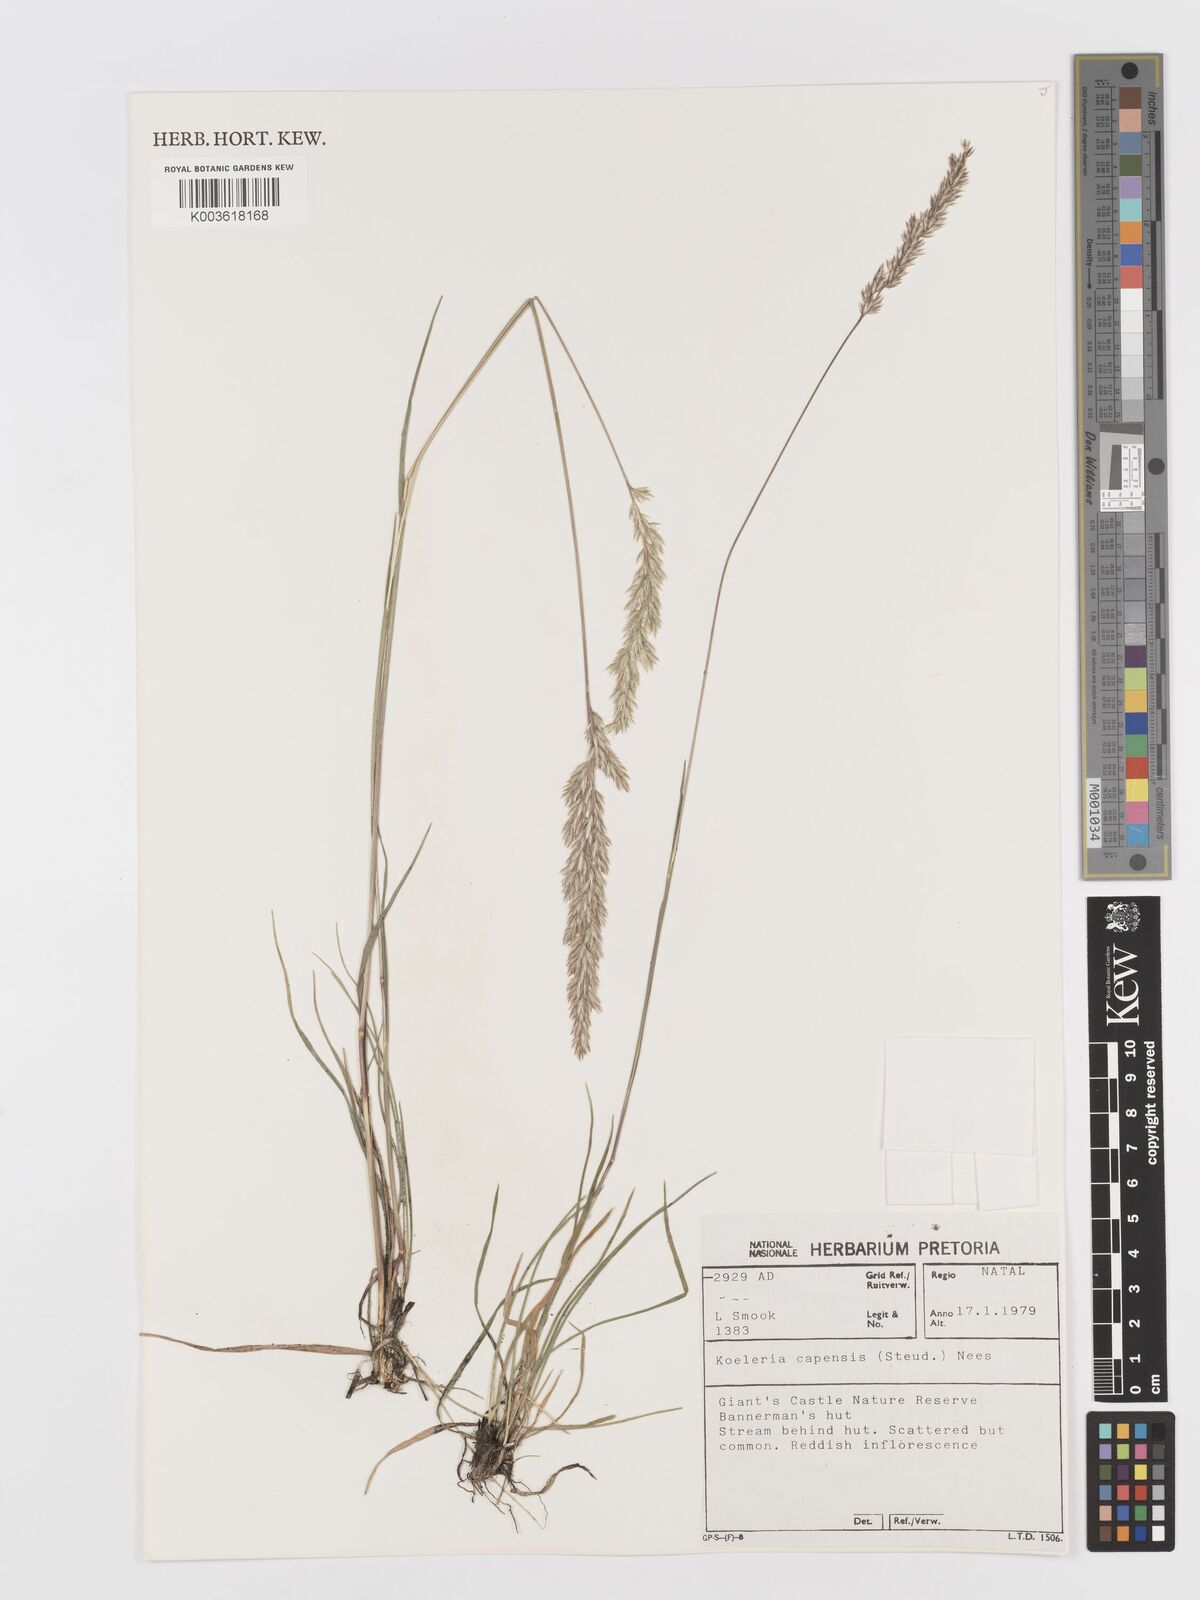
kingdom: Plantae
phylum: Tracheophyta
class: Liliopsida
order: Poales
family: Poaceae
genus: Koeleria
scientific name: Koeleria capensis
